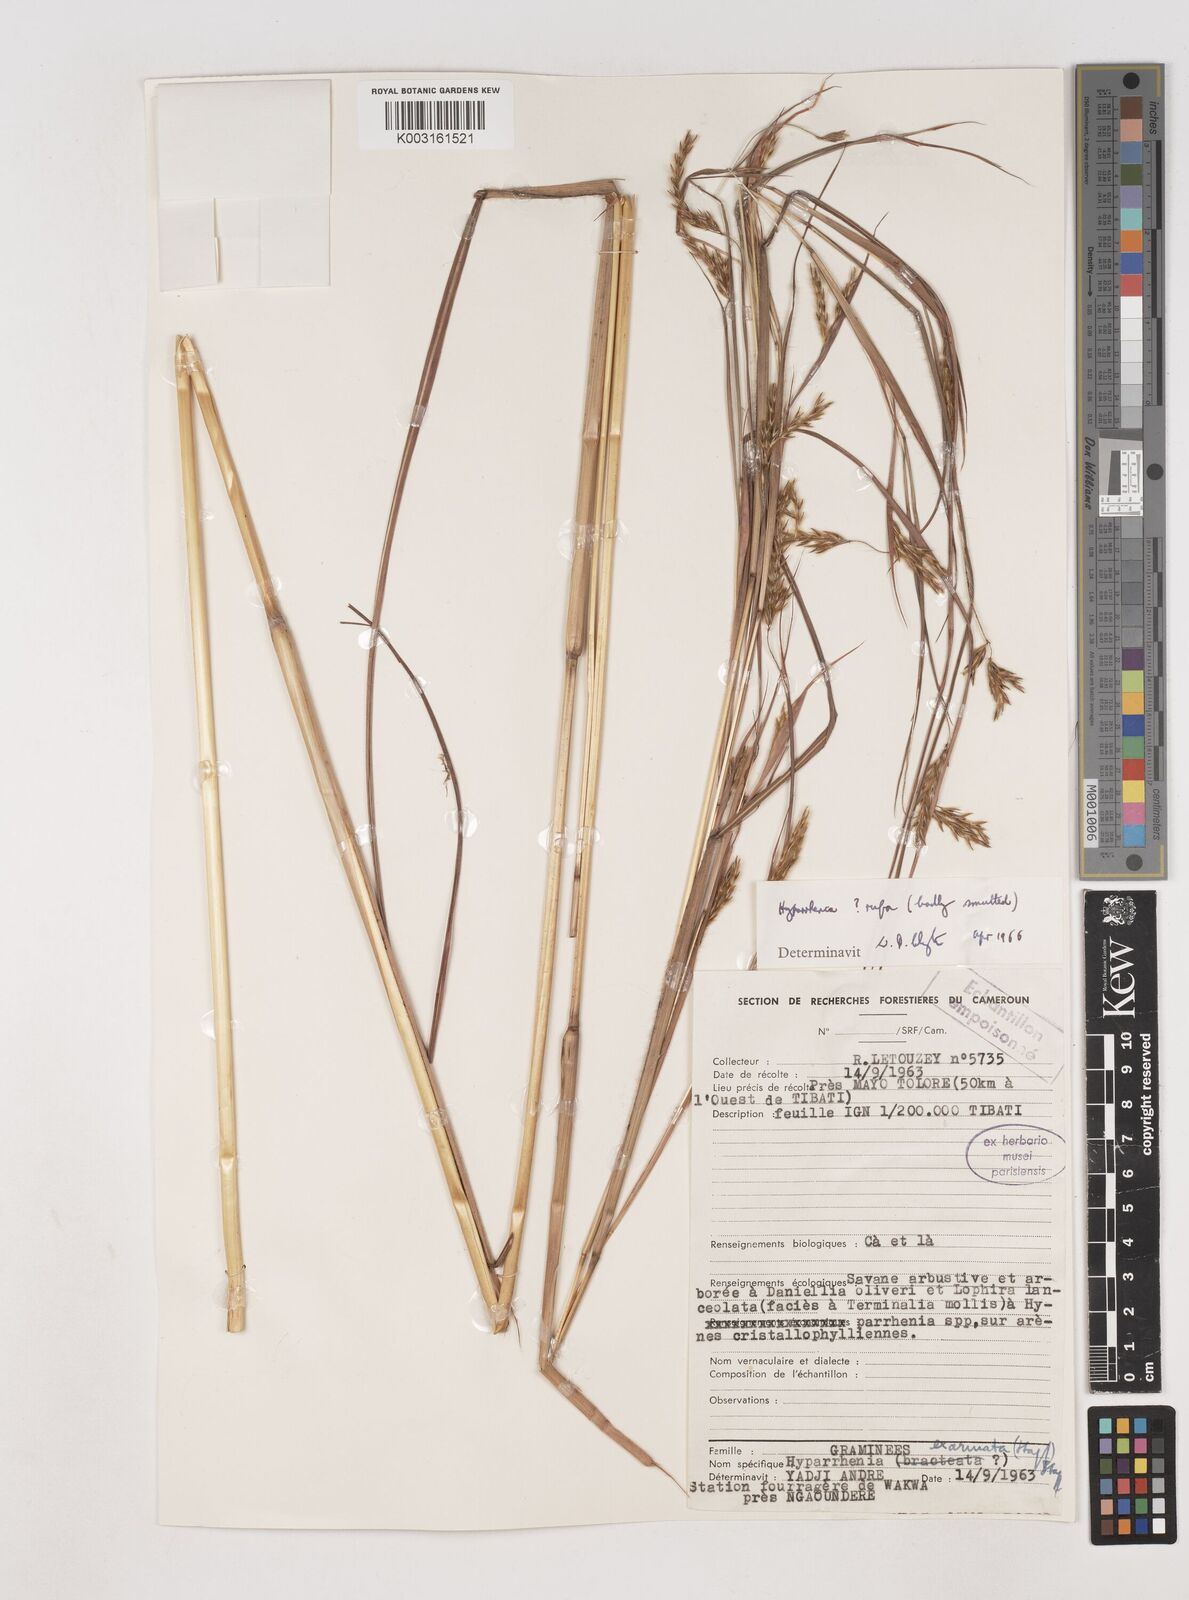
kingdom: Plantae
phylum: Tracheophyta
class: Liliopsida
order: Poales
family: Poaceae
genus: Hyparrhenia
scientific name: Hyparrhenia rufa
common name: Jaraguagrass
